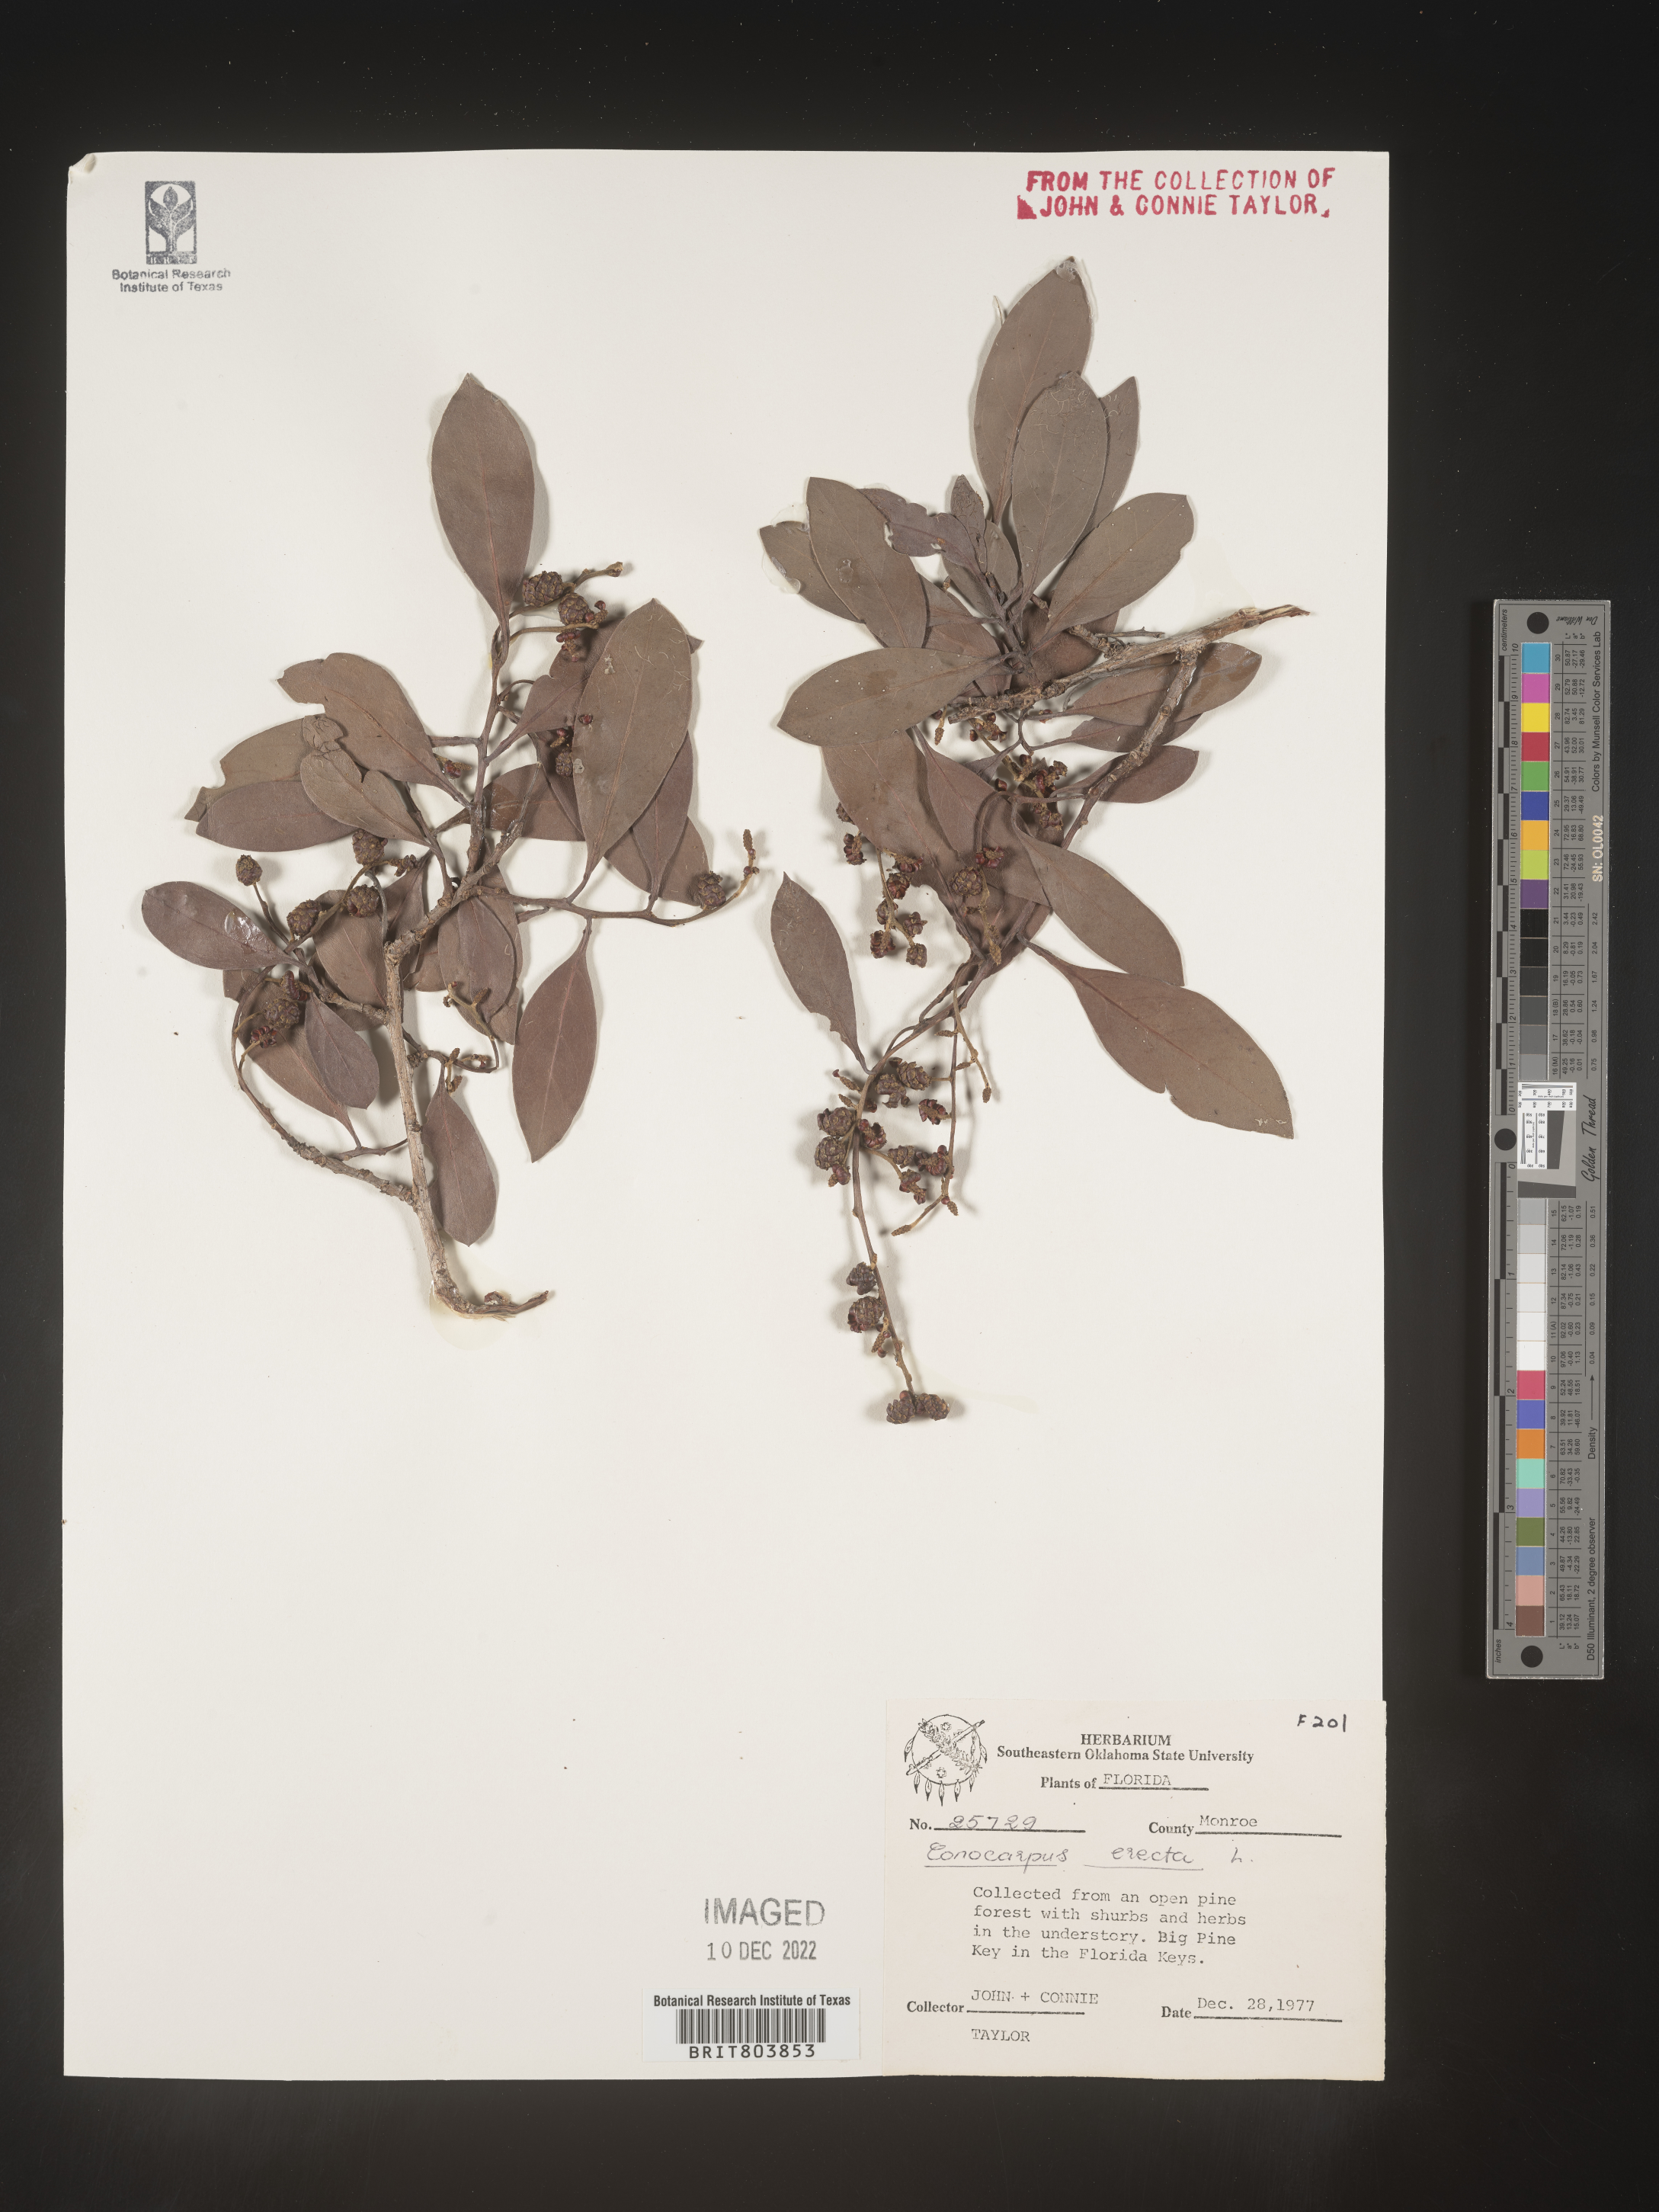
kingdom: Plantae
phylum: Tracheophyta
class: Magnoliopsida
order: Myrtales
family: Combretaceae
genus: Conocarpus
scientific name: Conocarpus erectus
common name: Button mangrove
